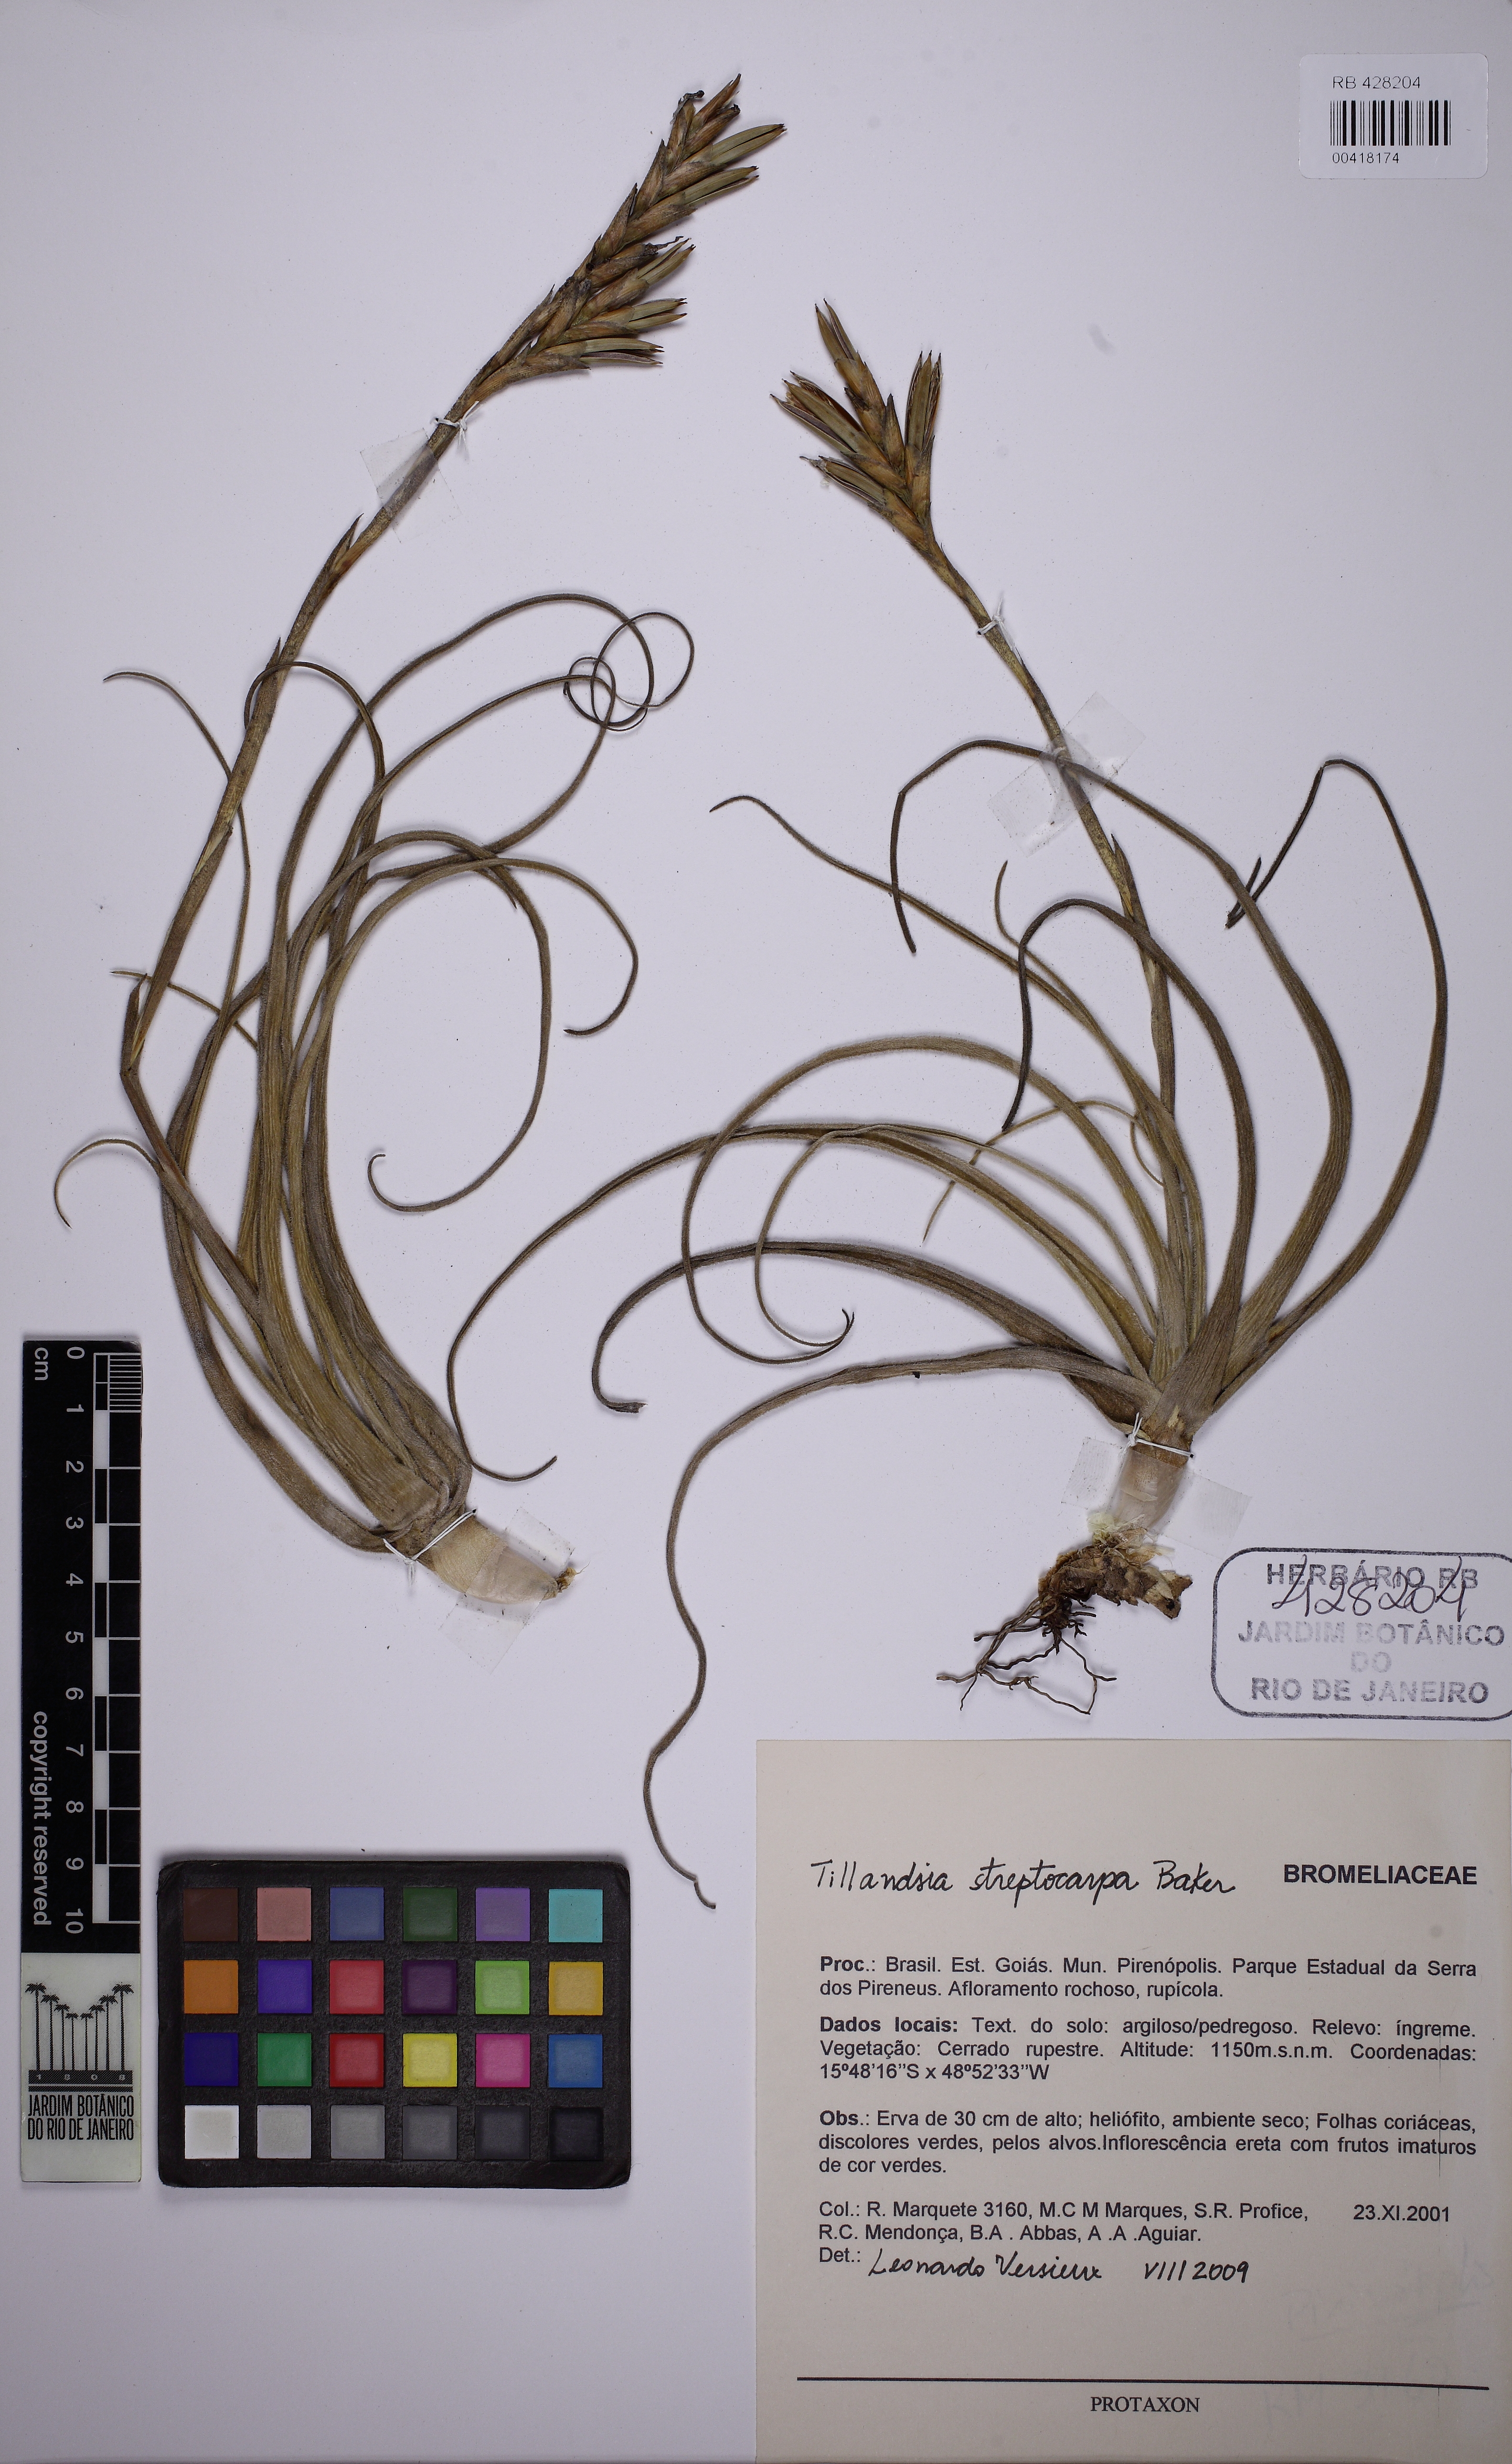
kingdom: Plantae
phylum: Tracheophyta
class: Liliopsida
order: Poales
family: Bromeliaceae
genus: Tillandsia
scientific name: Tillandsia streptocarpa
